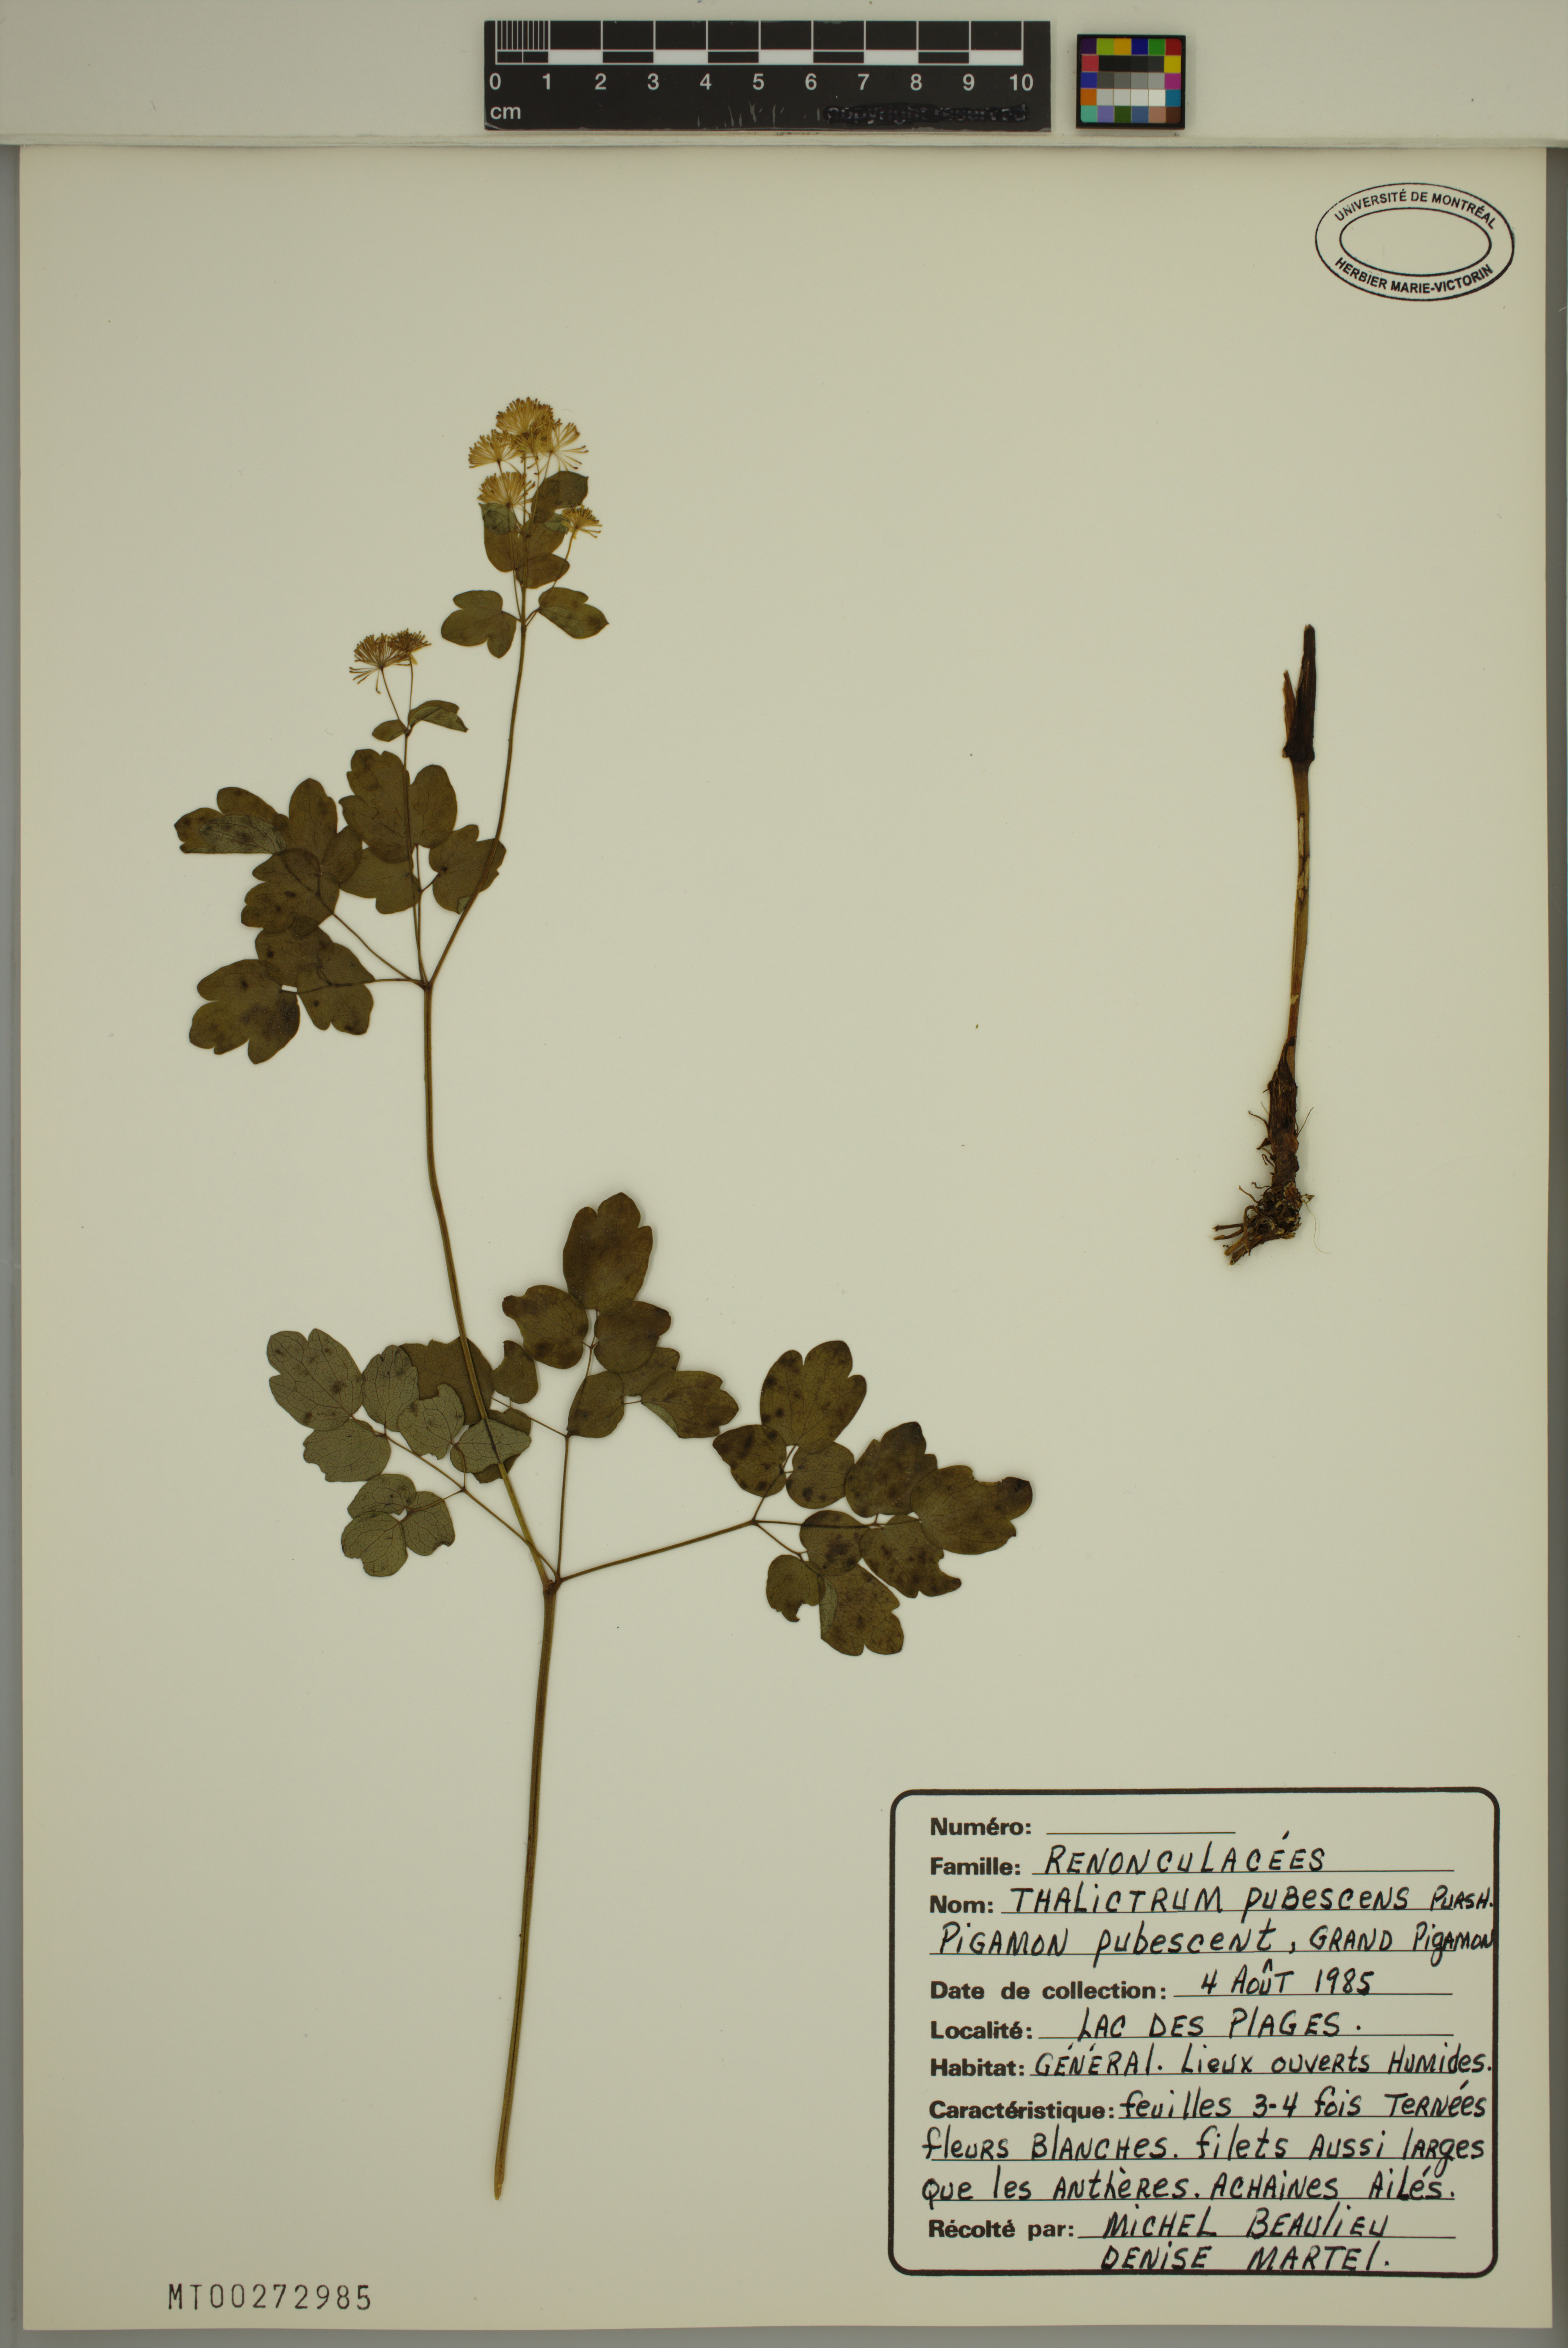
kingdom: Plantae
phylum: Tracheophyta
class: Magnoliopsida
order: Ranunculales
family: Ranunculaceae
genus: Thalictrum
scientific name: Thalictrum pubescens
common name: King-of-the-meadow
